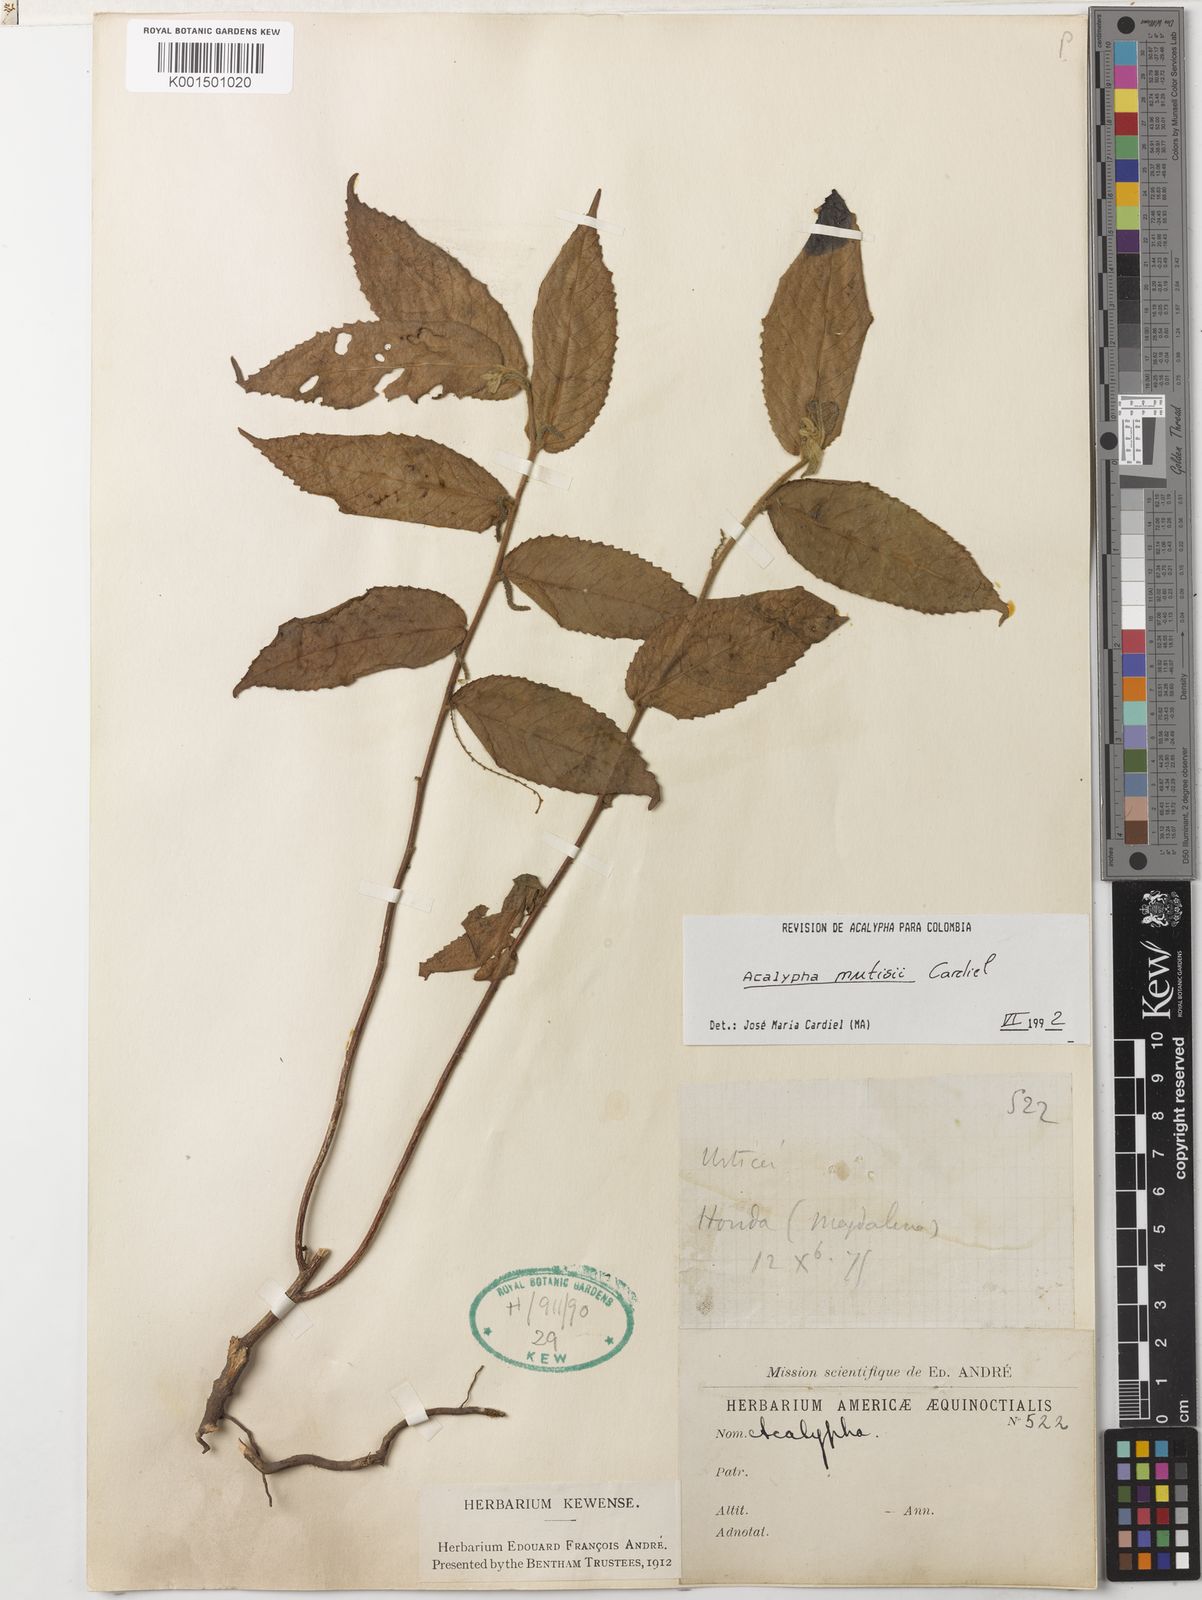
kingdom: Plantae
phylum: Tracheophyta
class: Magnoliopsida
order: Malpighiales
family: Euphorbiaceae
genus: Acalypha
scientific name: Acalypha mutisii
